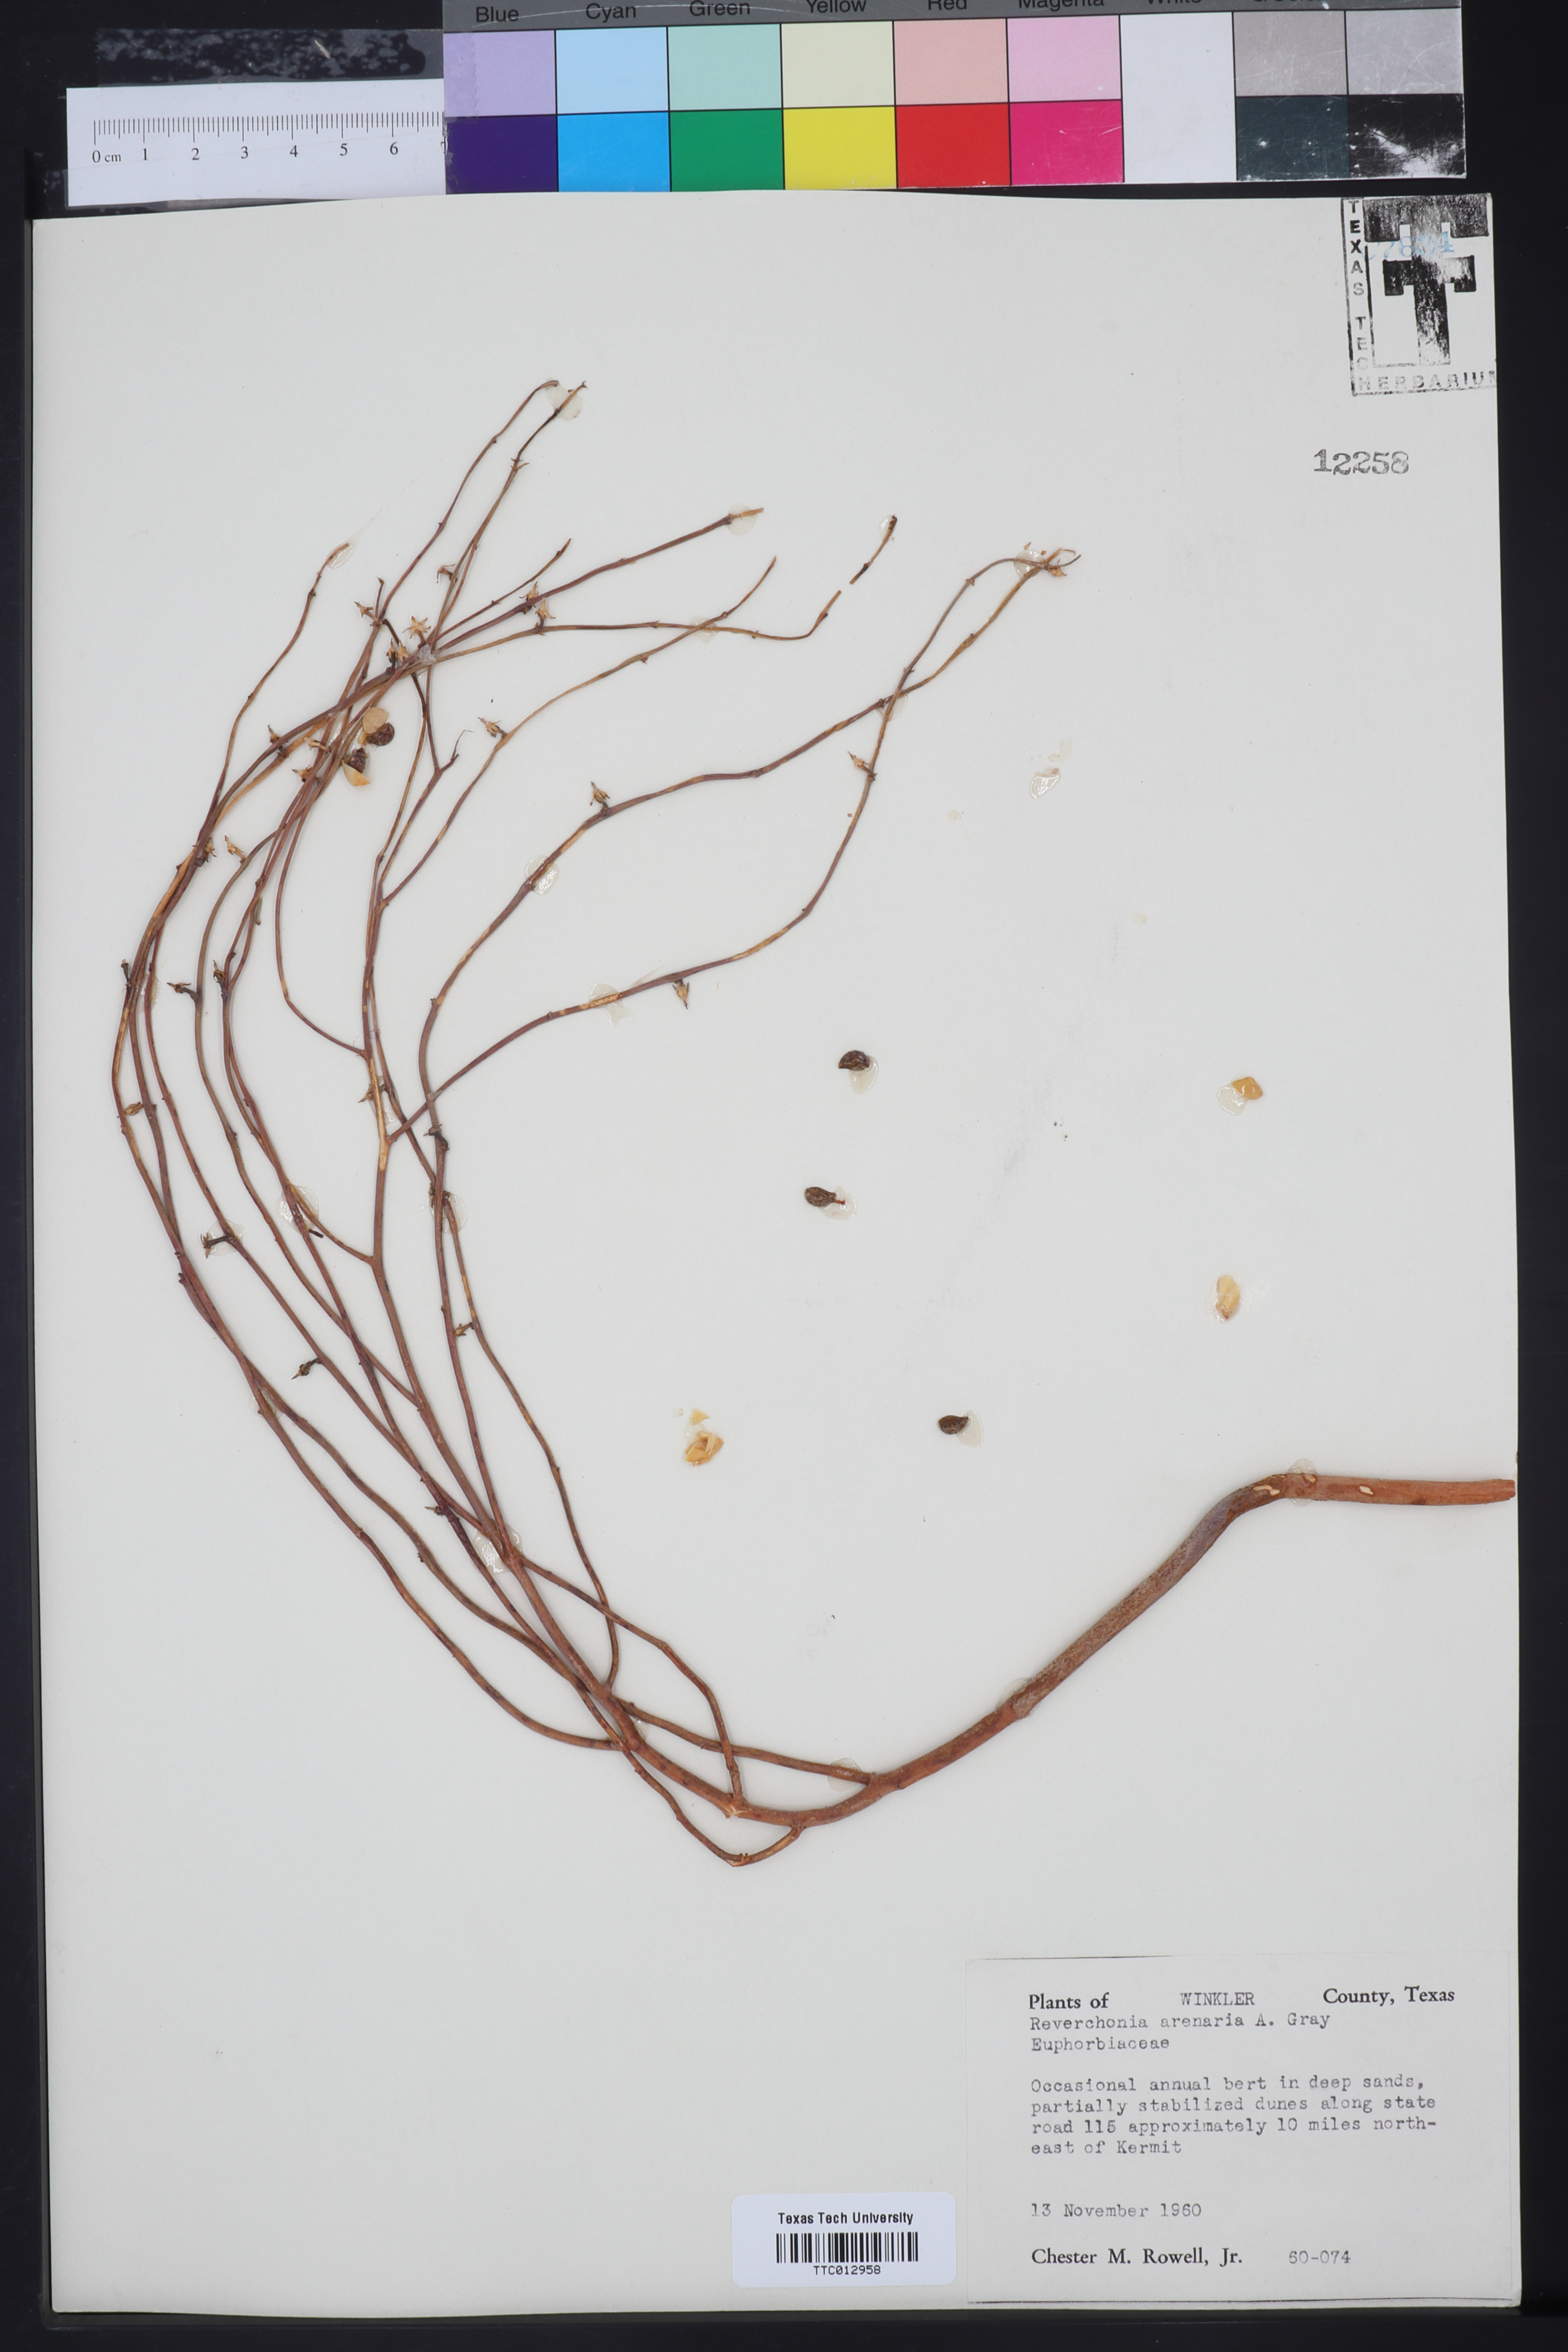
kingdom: Plantae
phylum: Tracheophyta
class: Magnoliopsida
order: Malpighiales
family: Phyllanthaceae
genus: Phyllanthus
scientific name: Phyllanthus warnockii
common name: Sand reverchonia
